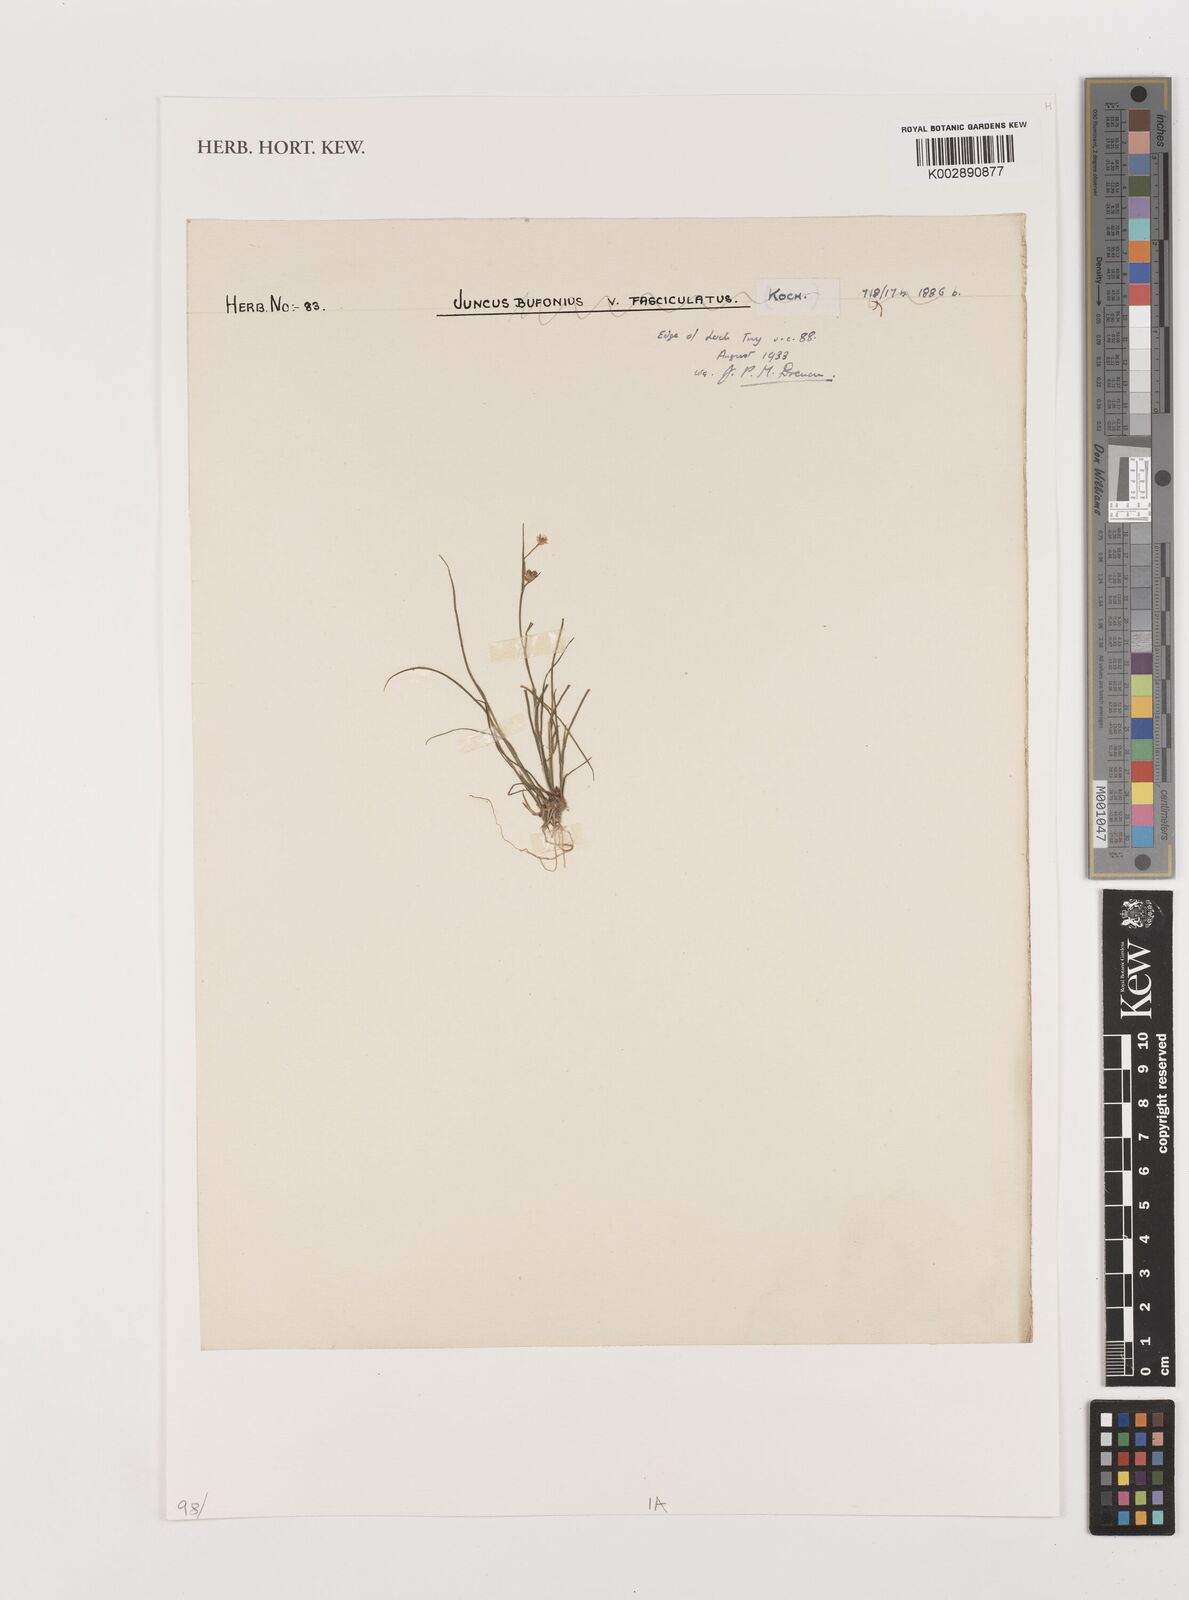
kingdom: Plantae
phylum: Tracheophyta
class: Liliopsida
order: Poales
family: Juncaceae
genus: Juncus
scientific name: Juncus
